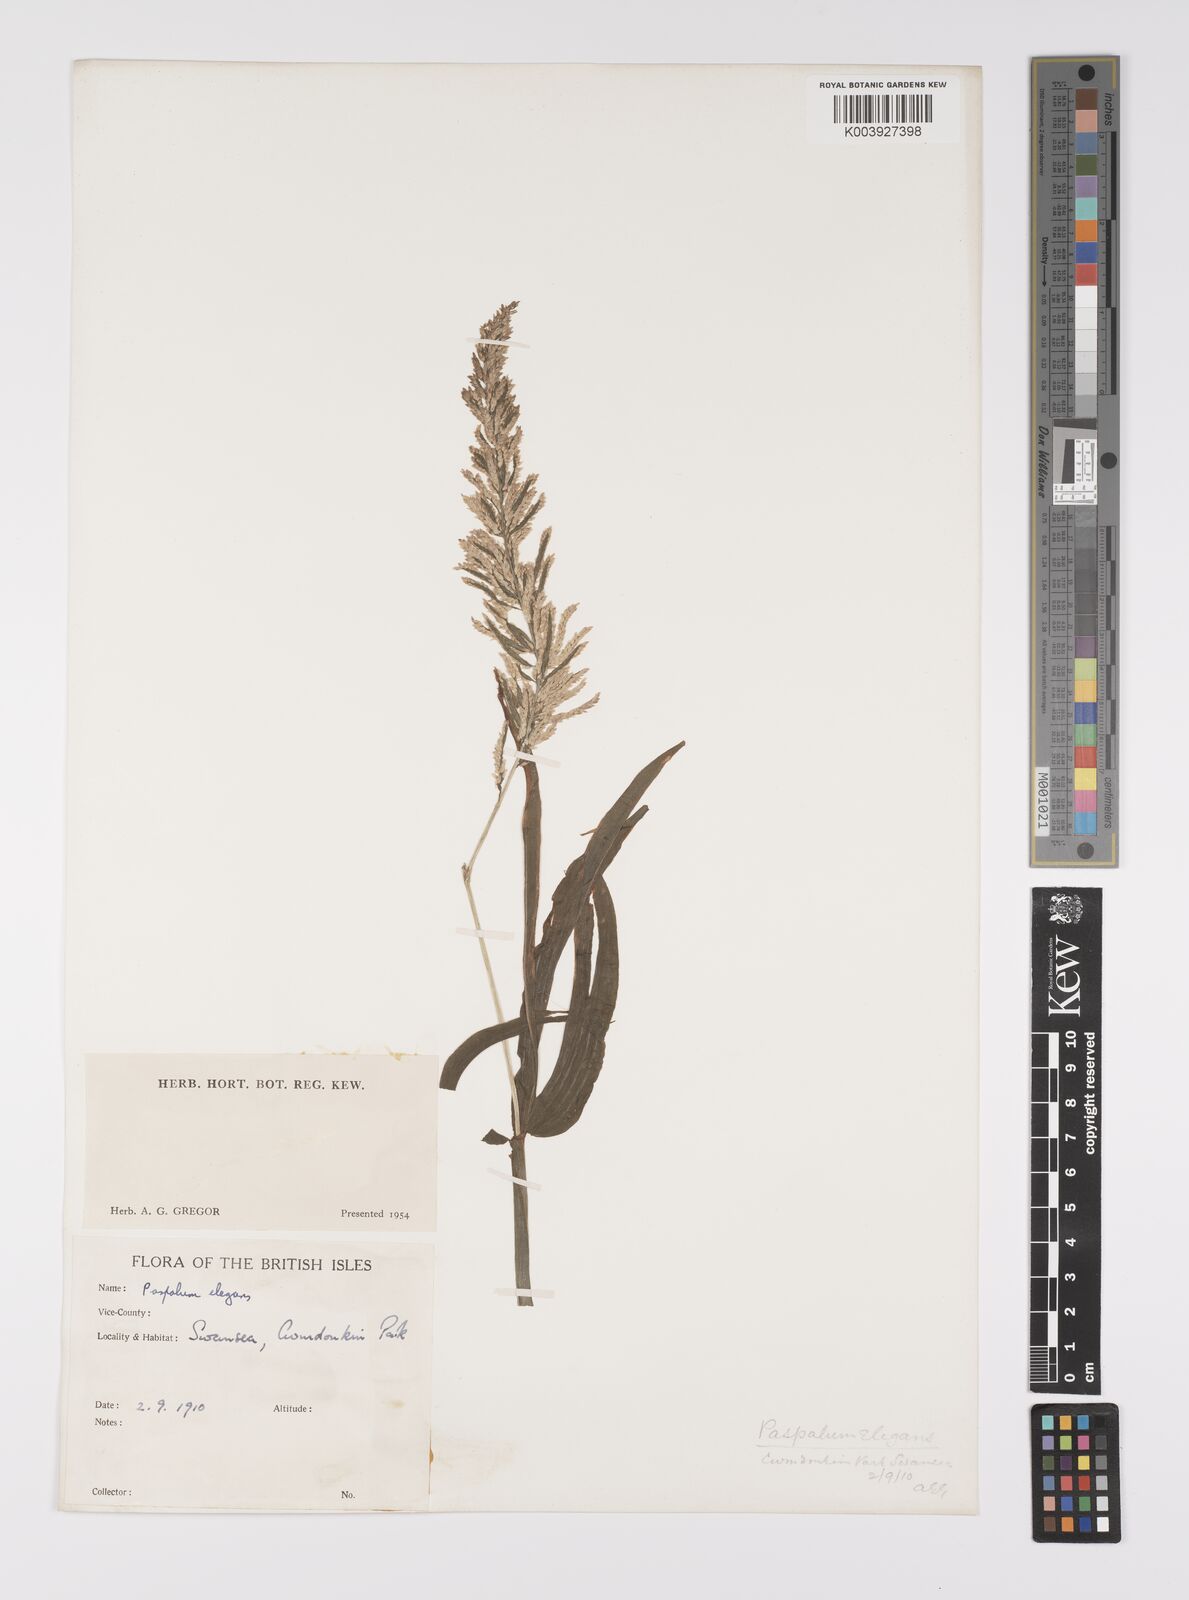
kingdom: Plantae
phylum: Tracheophyta
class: Liliopsida
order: Poales
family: Poaceae
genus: Paspalum
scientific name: Paspalum racemosum
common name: Peruvian paspalum
